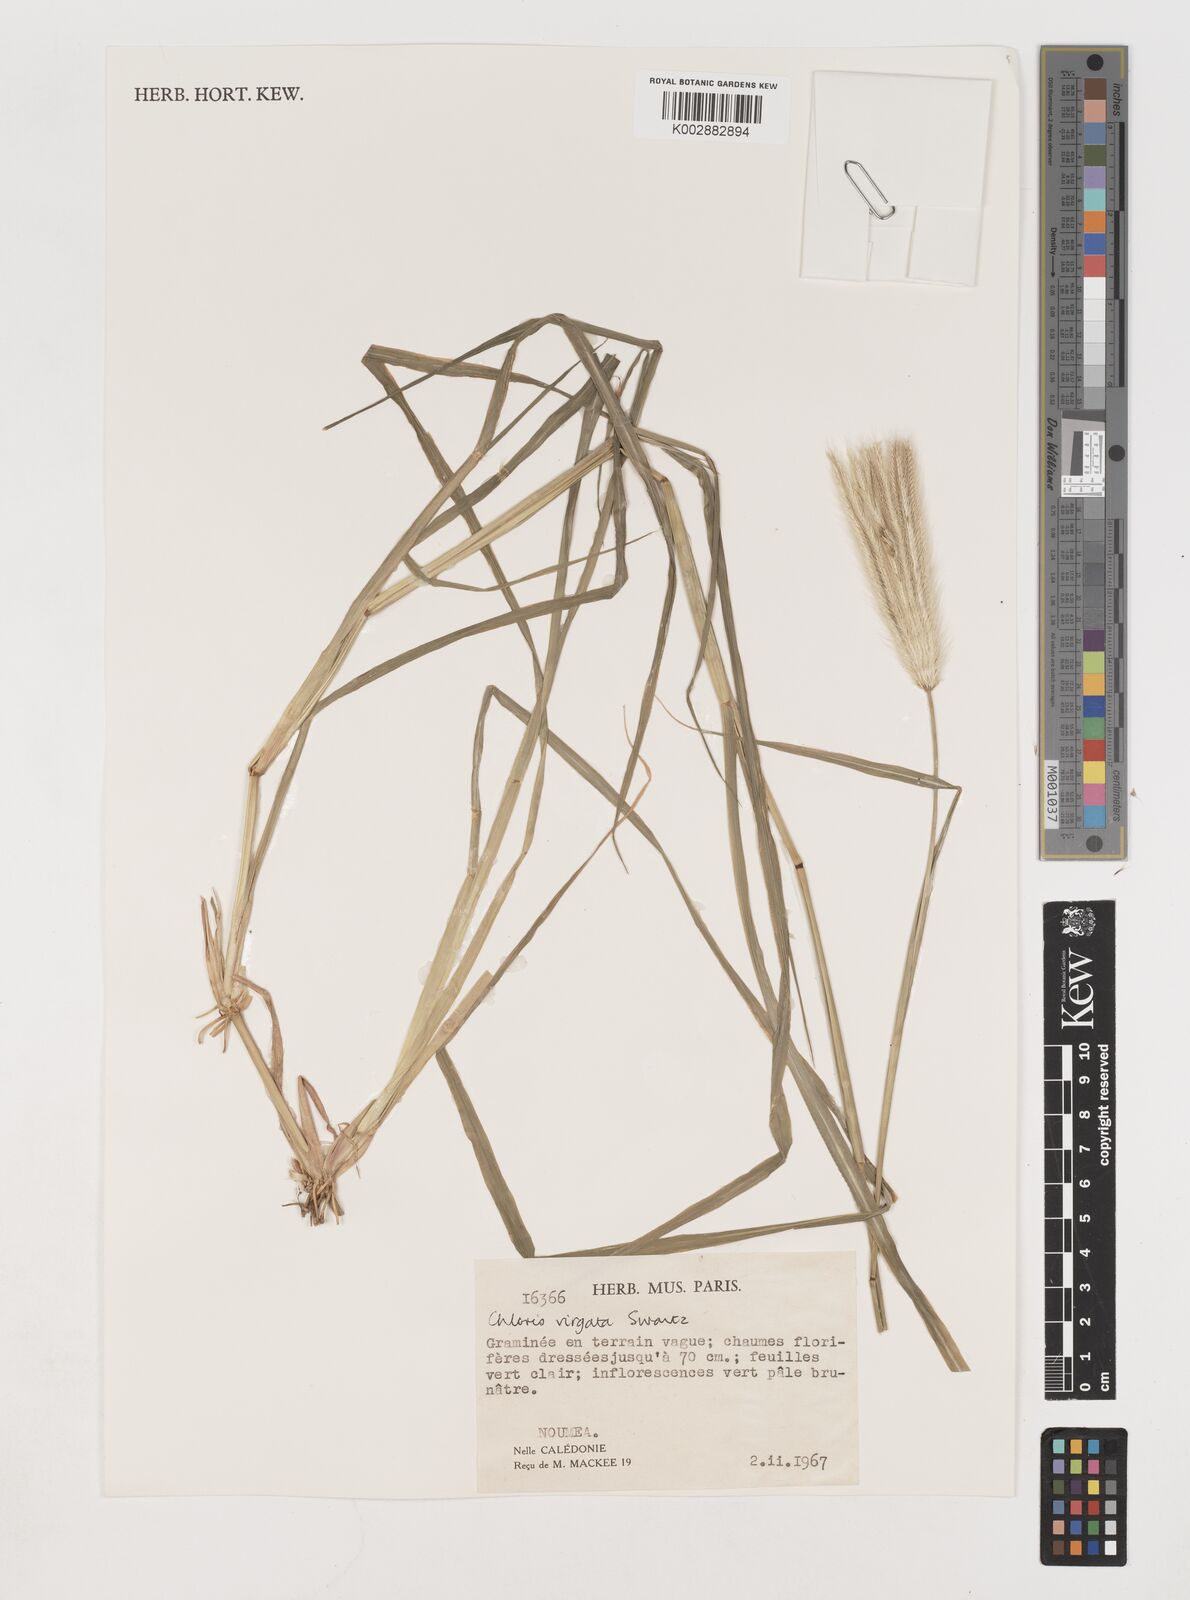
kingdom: Plantae
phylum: Tracheophyta
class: Liliopsida
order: Poales
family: Poaceae
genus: Chloris
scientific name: Chloris virgata
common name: Feathery rhodes-grass
